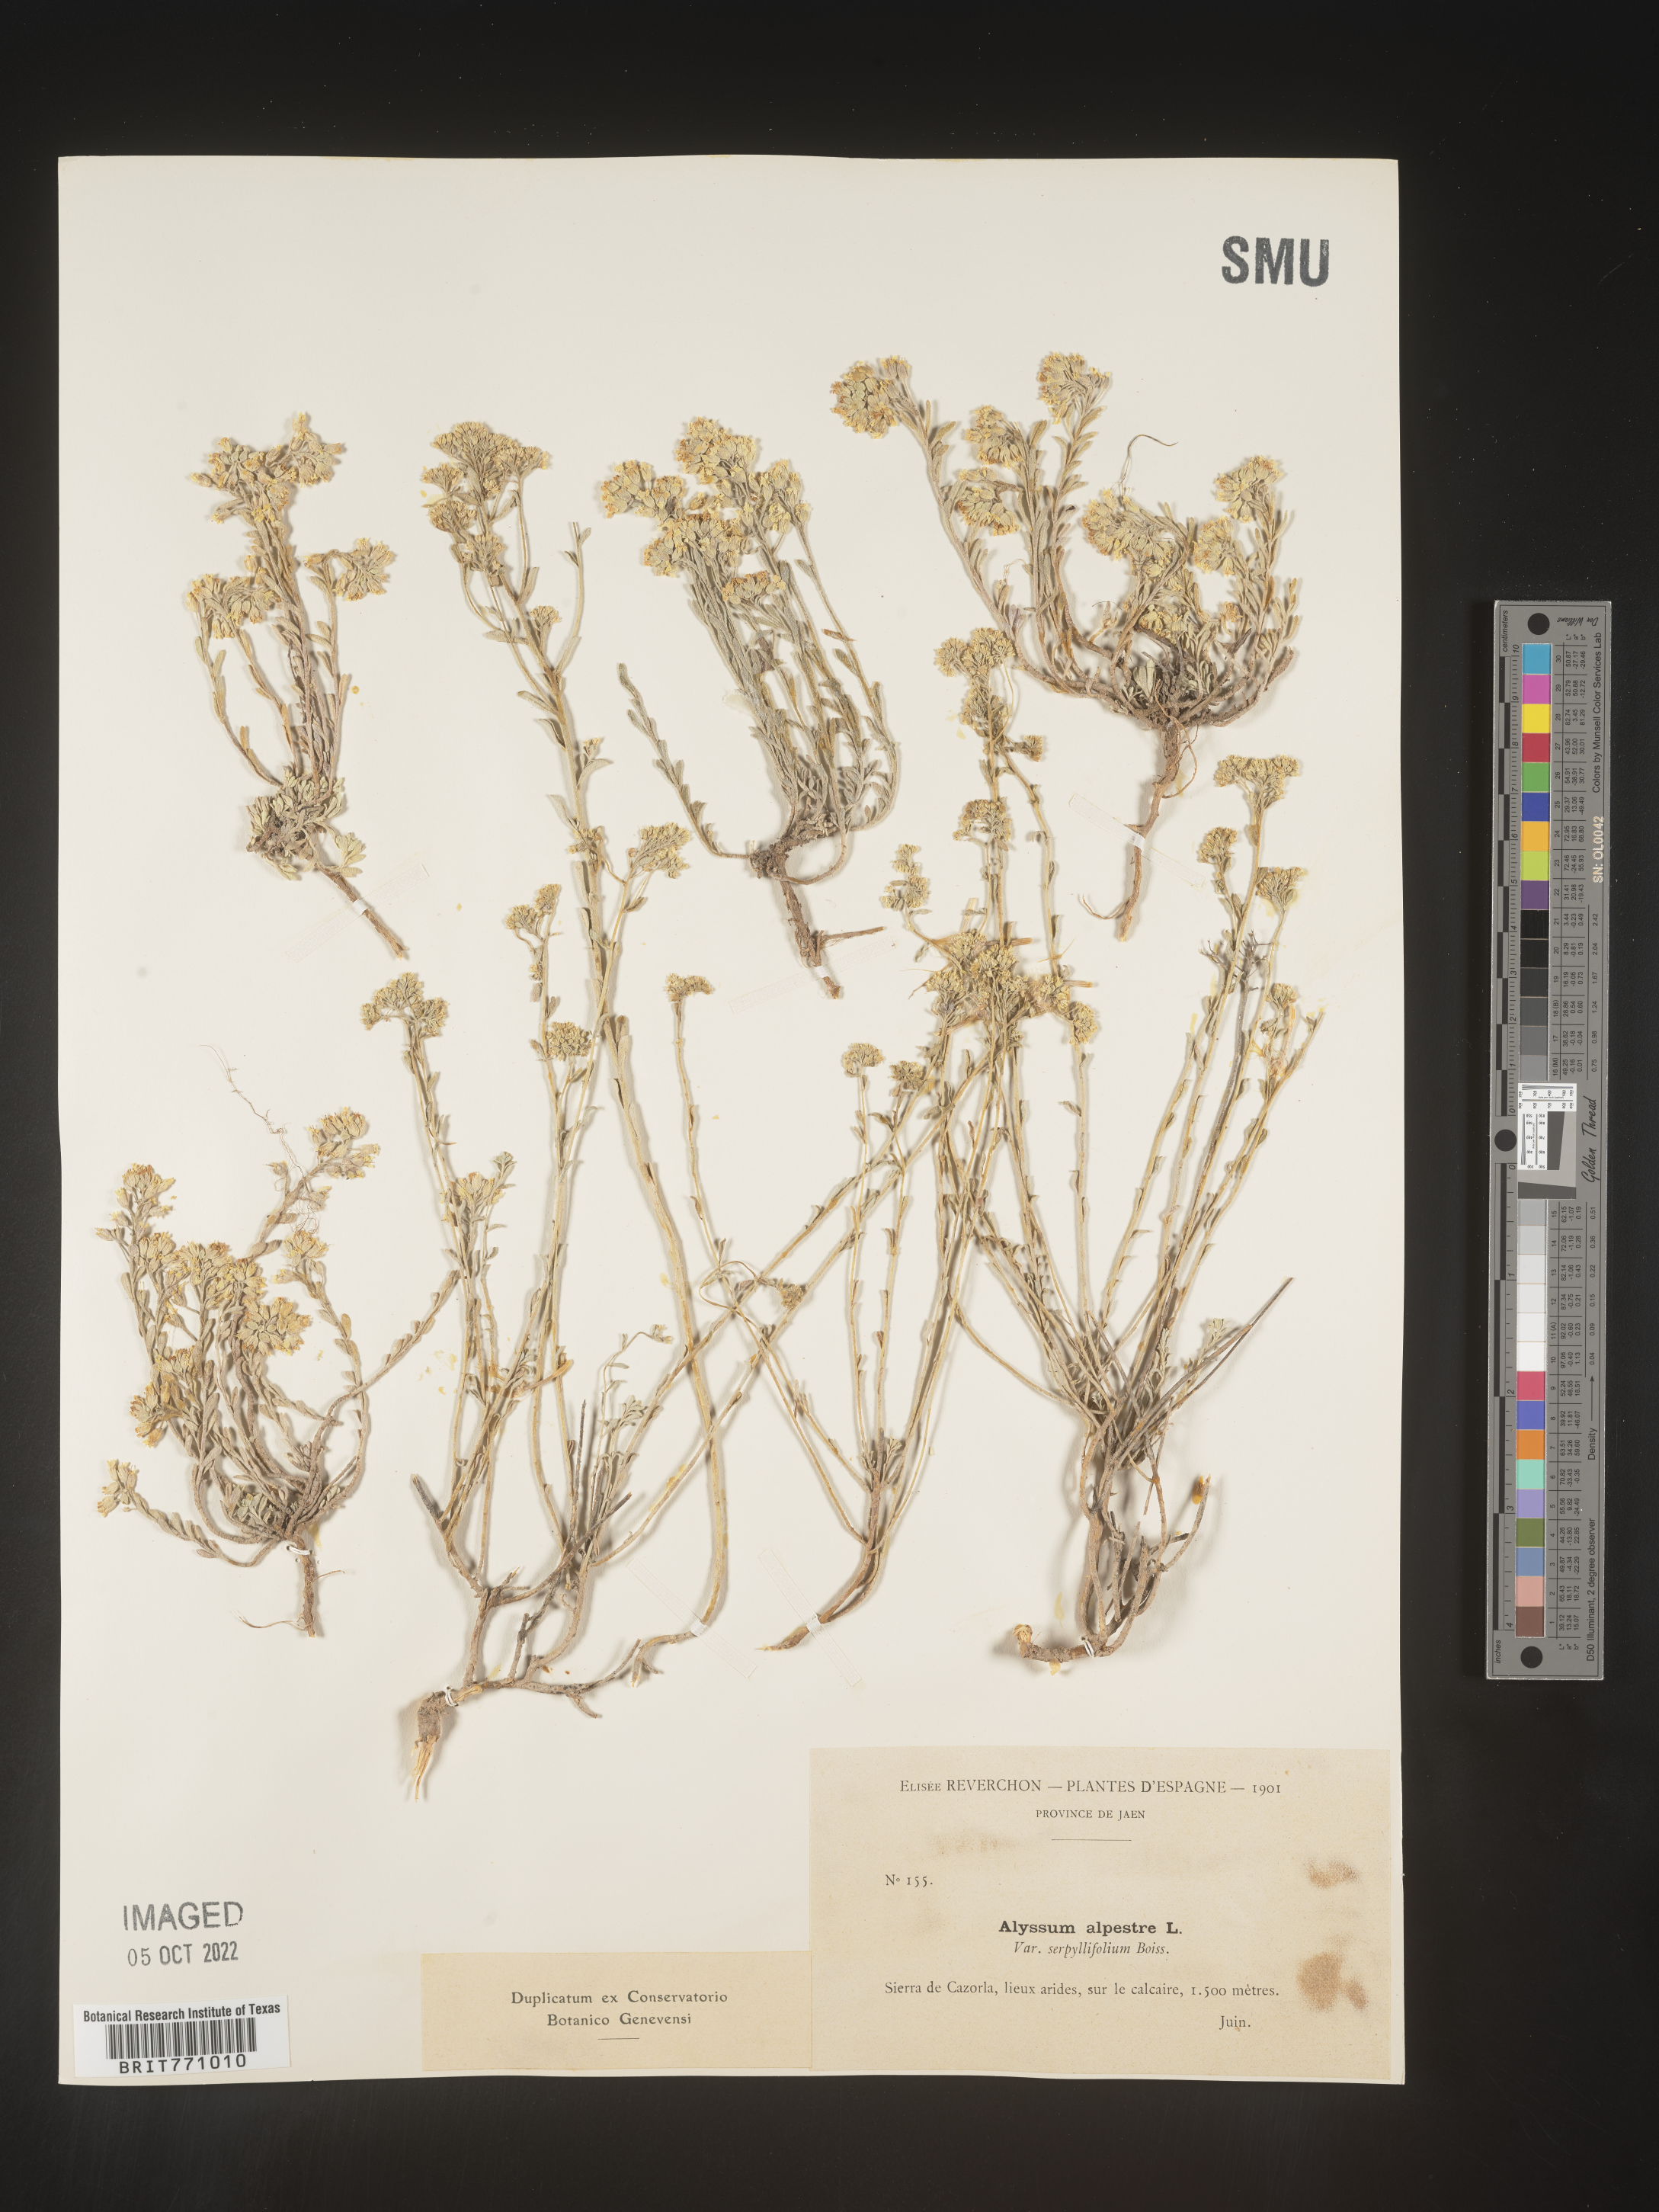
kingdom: Plantae
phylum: Tracheophyta
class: Magnoliopsida
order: Brassicales
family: Brassicaceae
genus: Alyssum
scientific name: Alyssum
